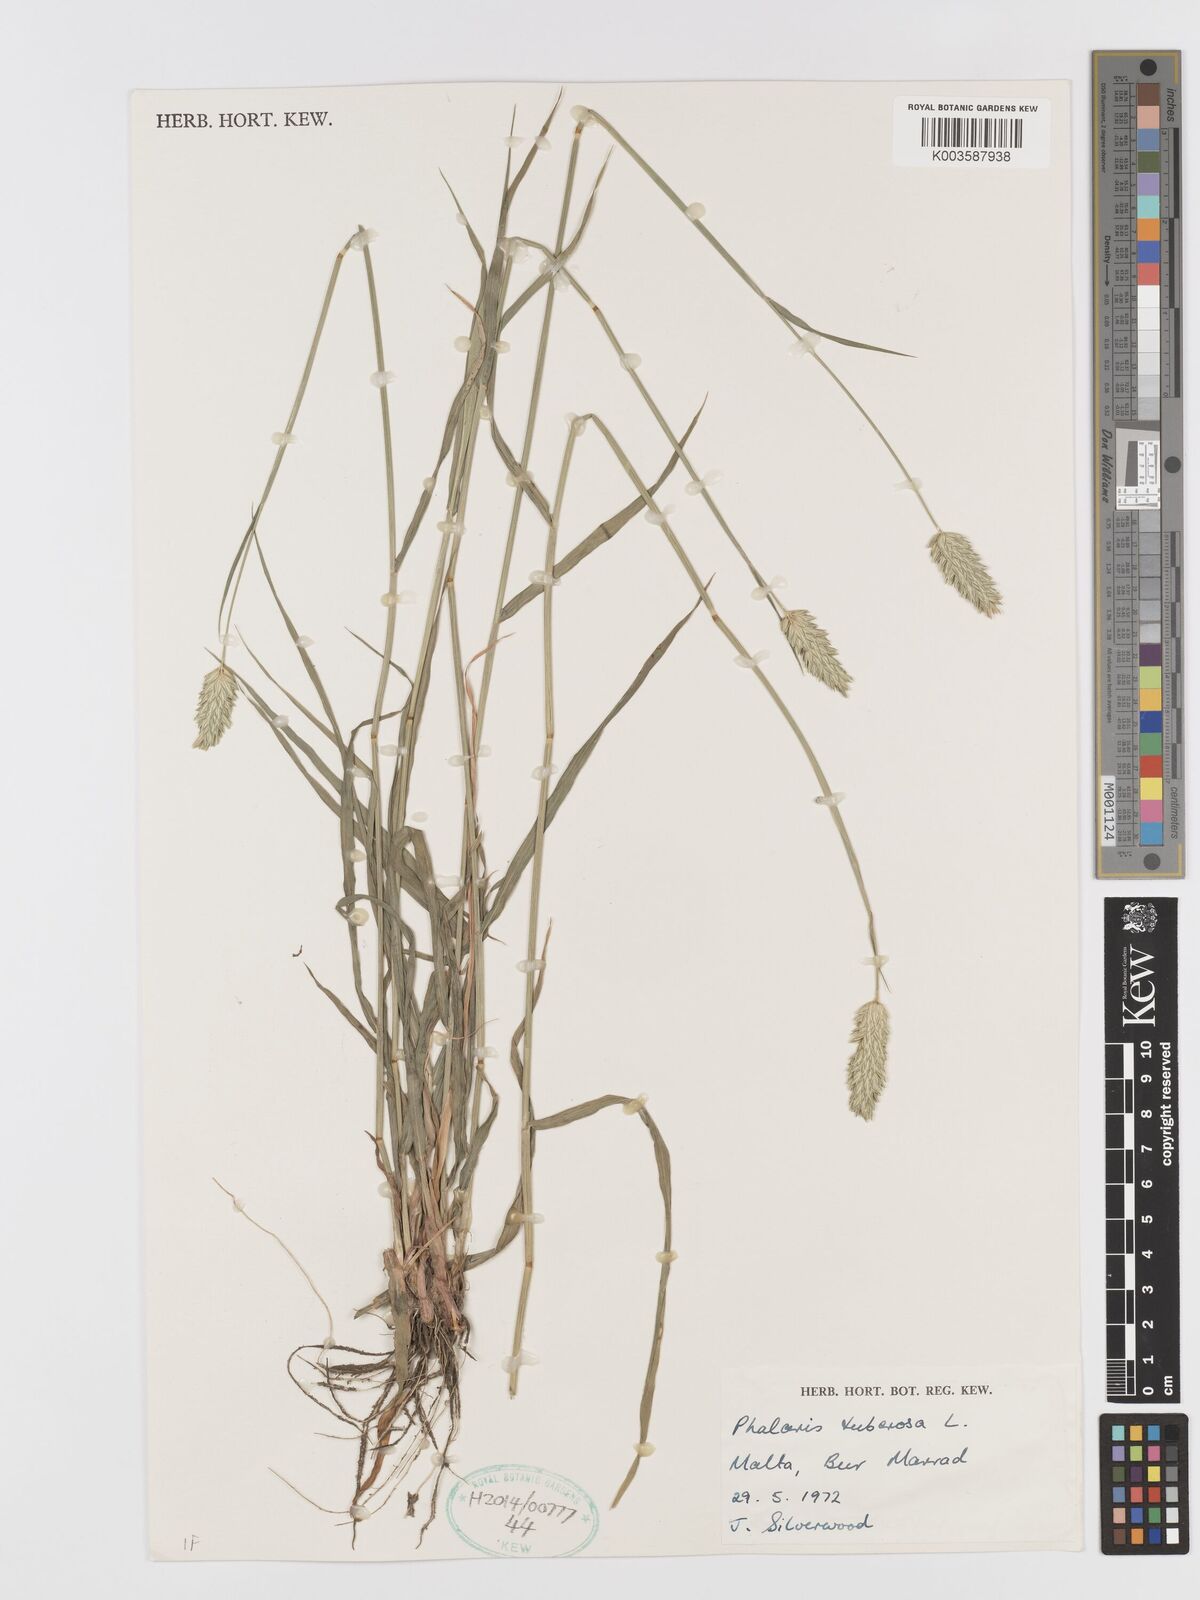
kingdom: Plantae
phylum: Tracheophyta
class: Liliopsida
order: Poales
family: Poaceae
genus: Phalaris
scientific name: Phalaris
